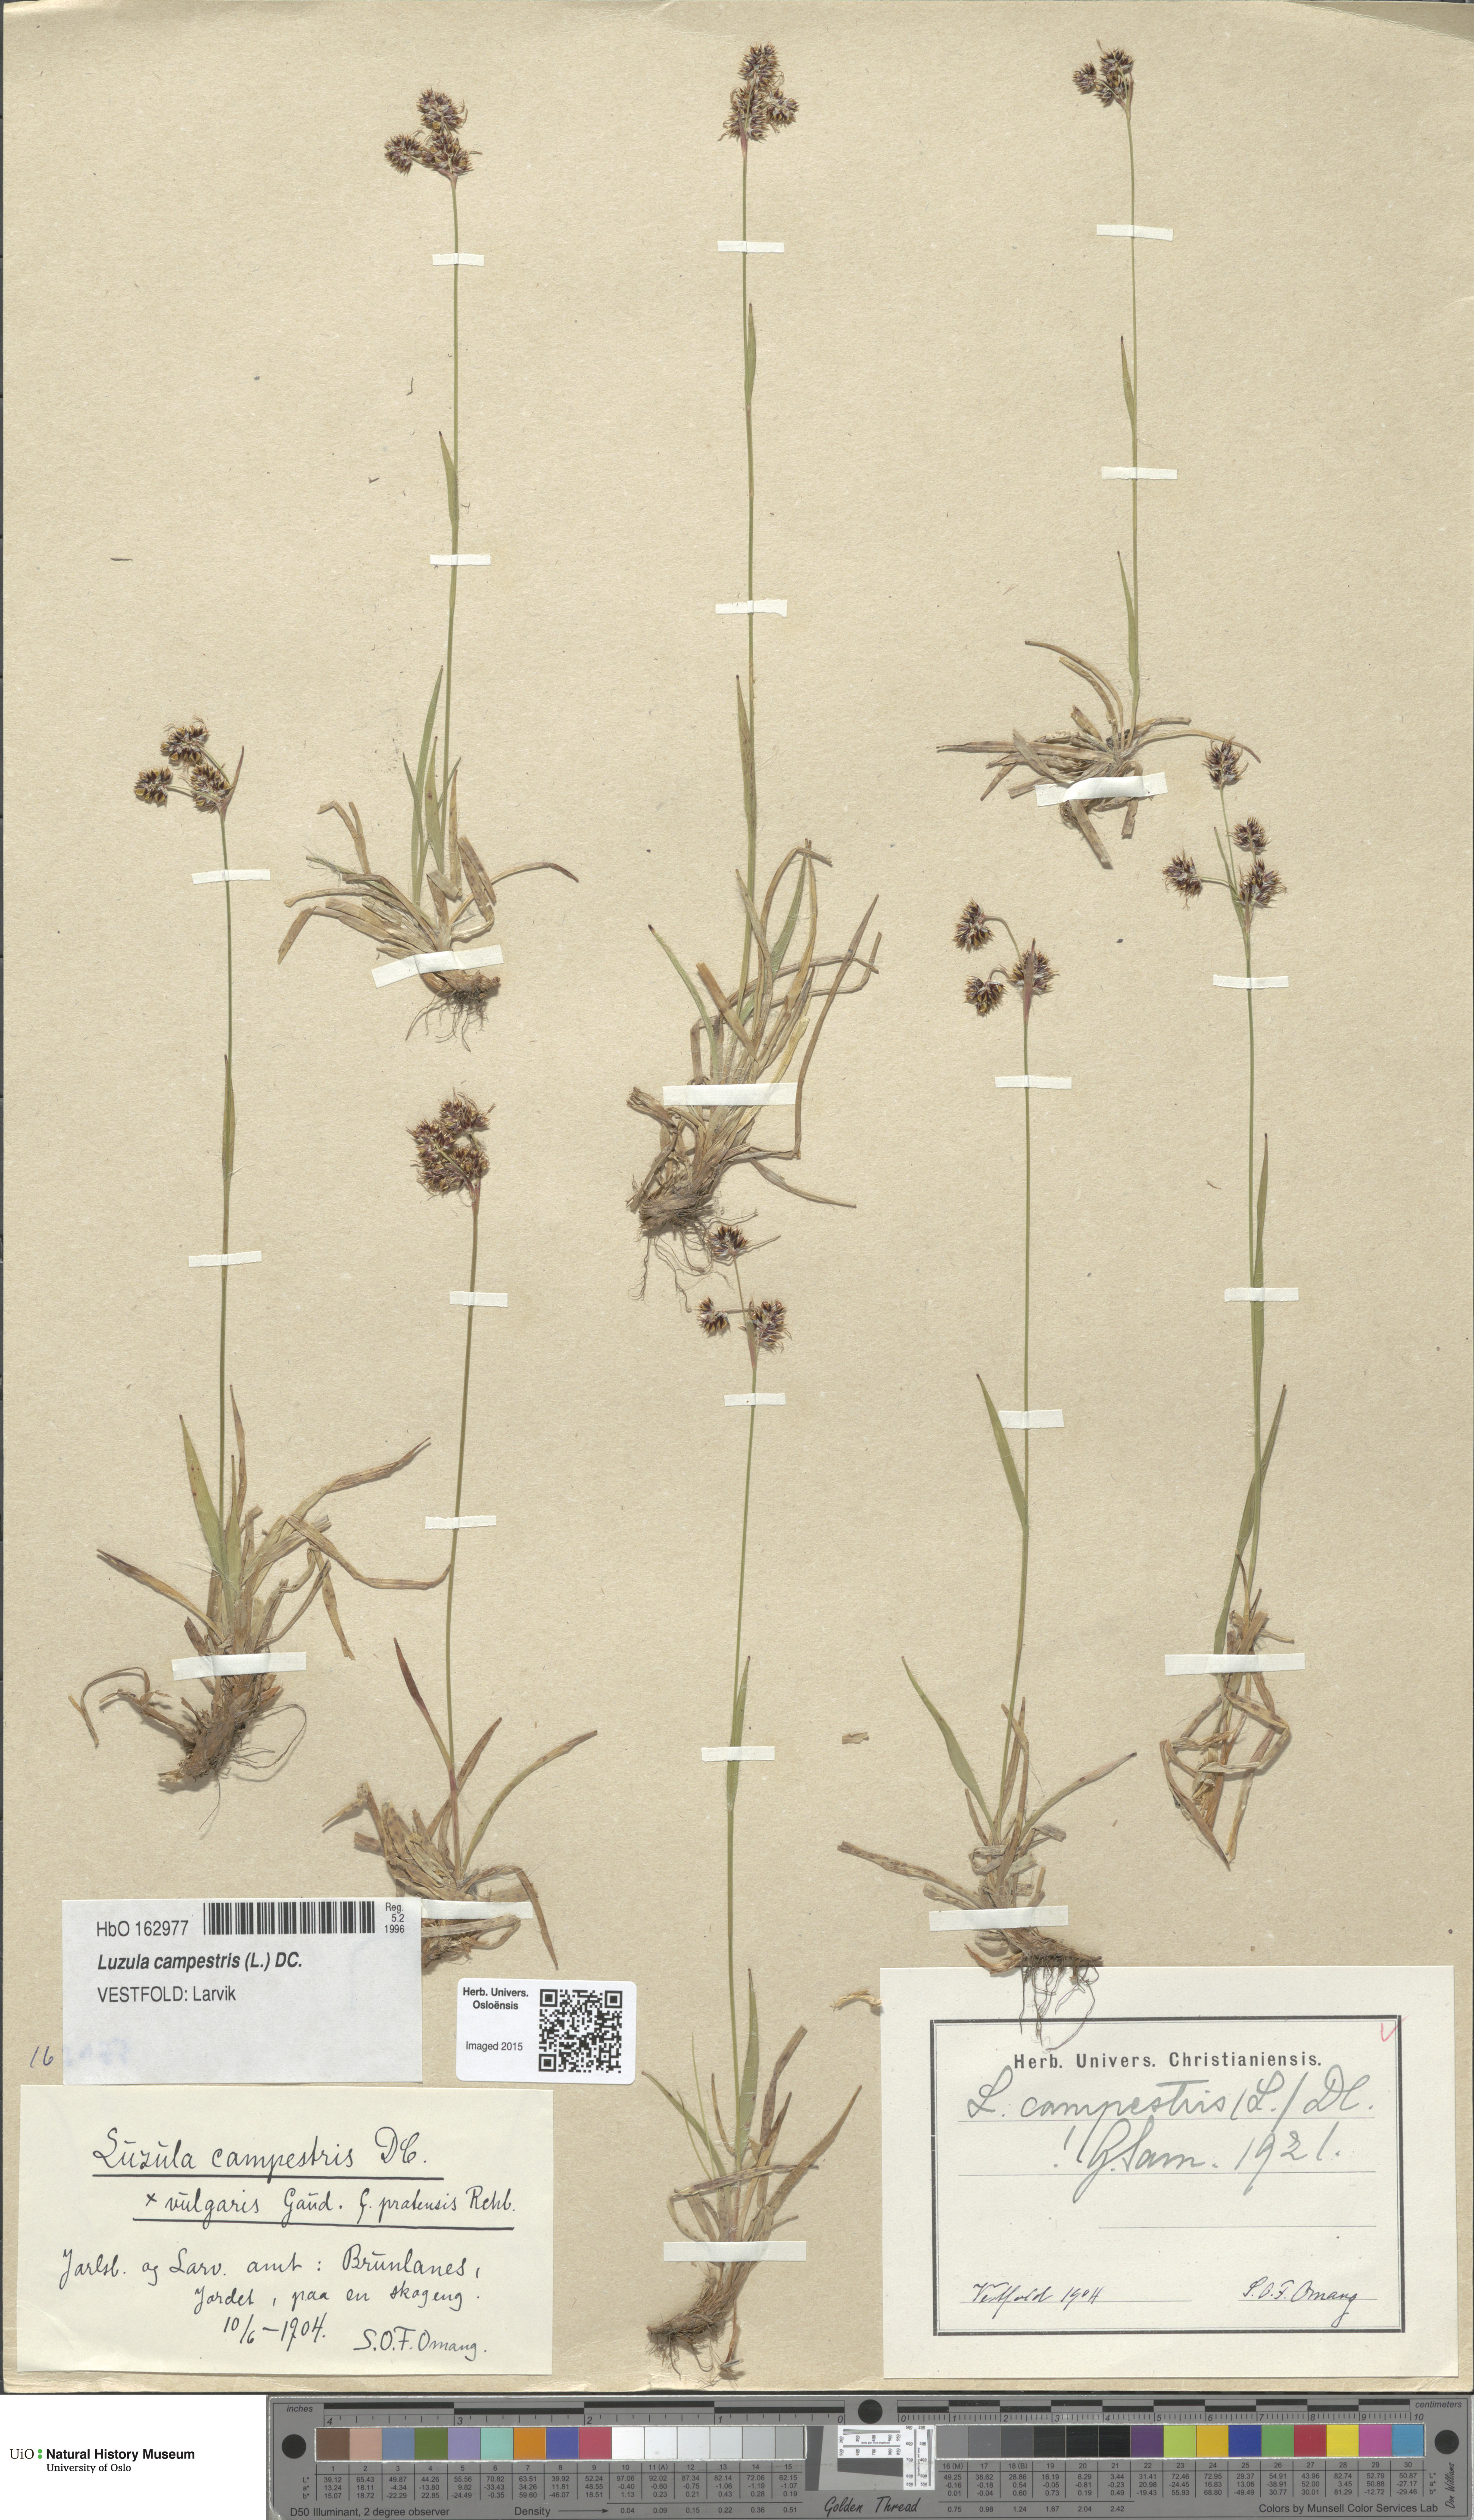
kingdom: Plantae
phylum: Tracheophyta
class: Liliopsida
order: Poales
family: Juncaceae
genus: Luzula
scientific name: Luzula campestris
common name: Field wood-rush
